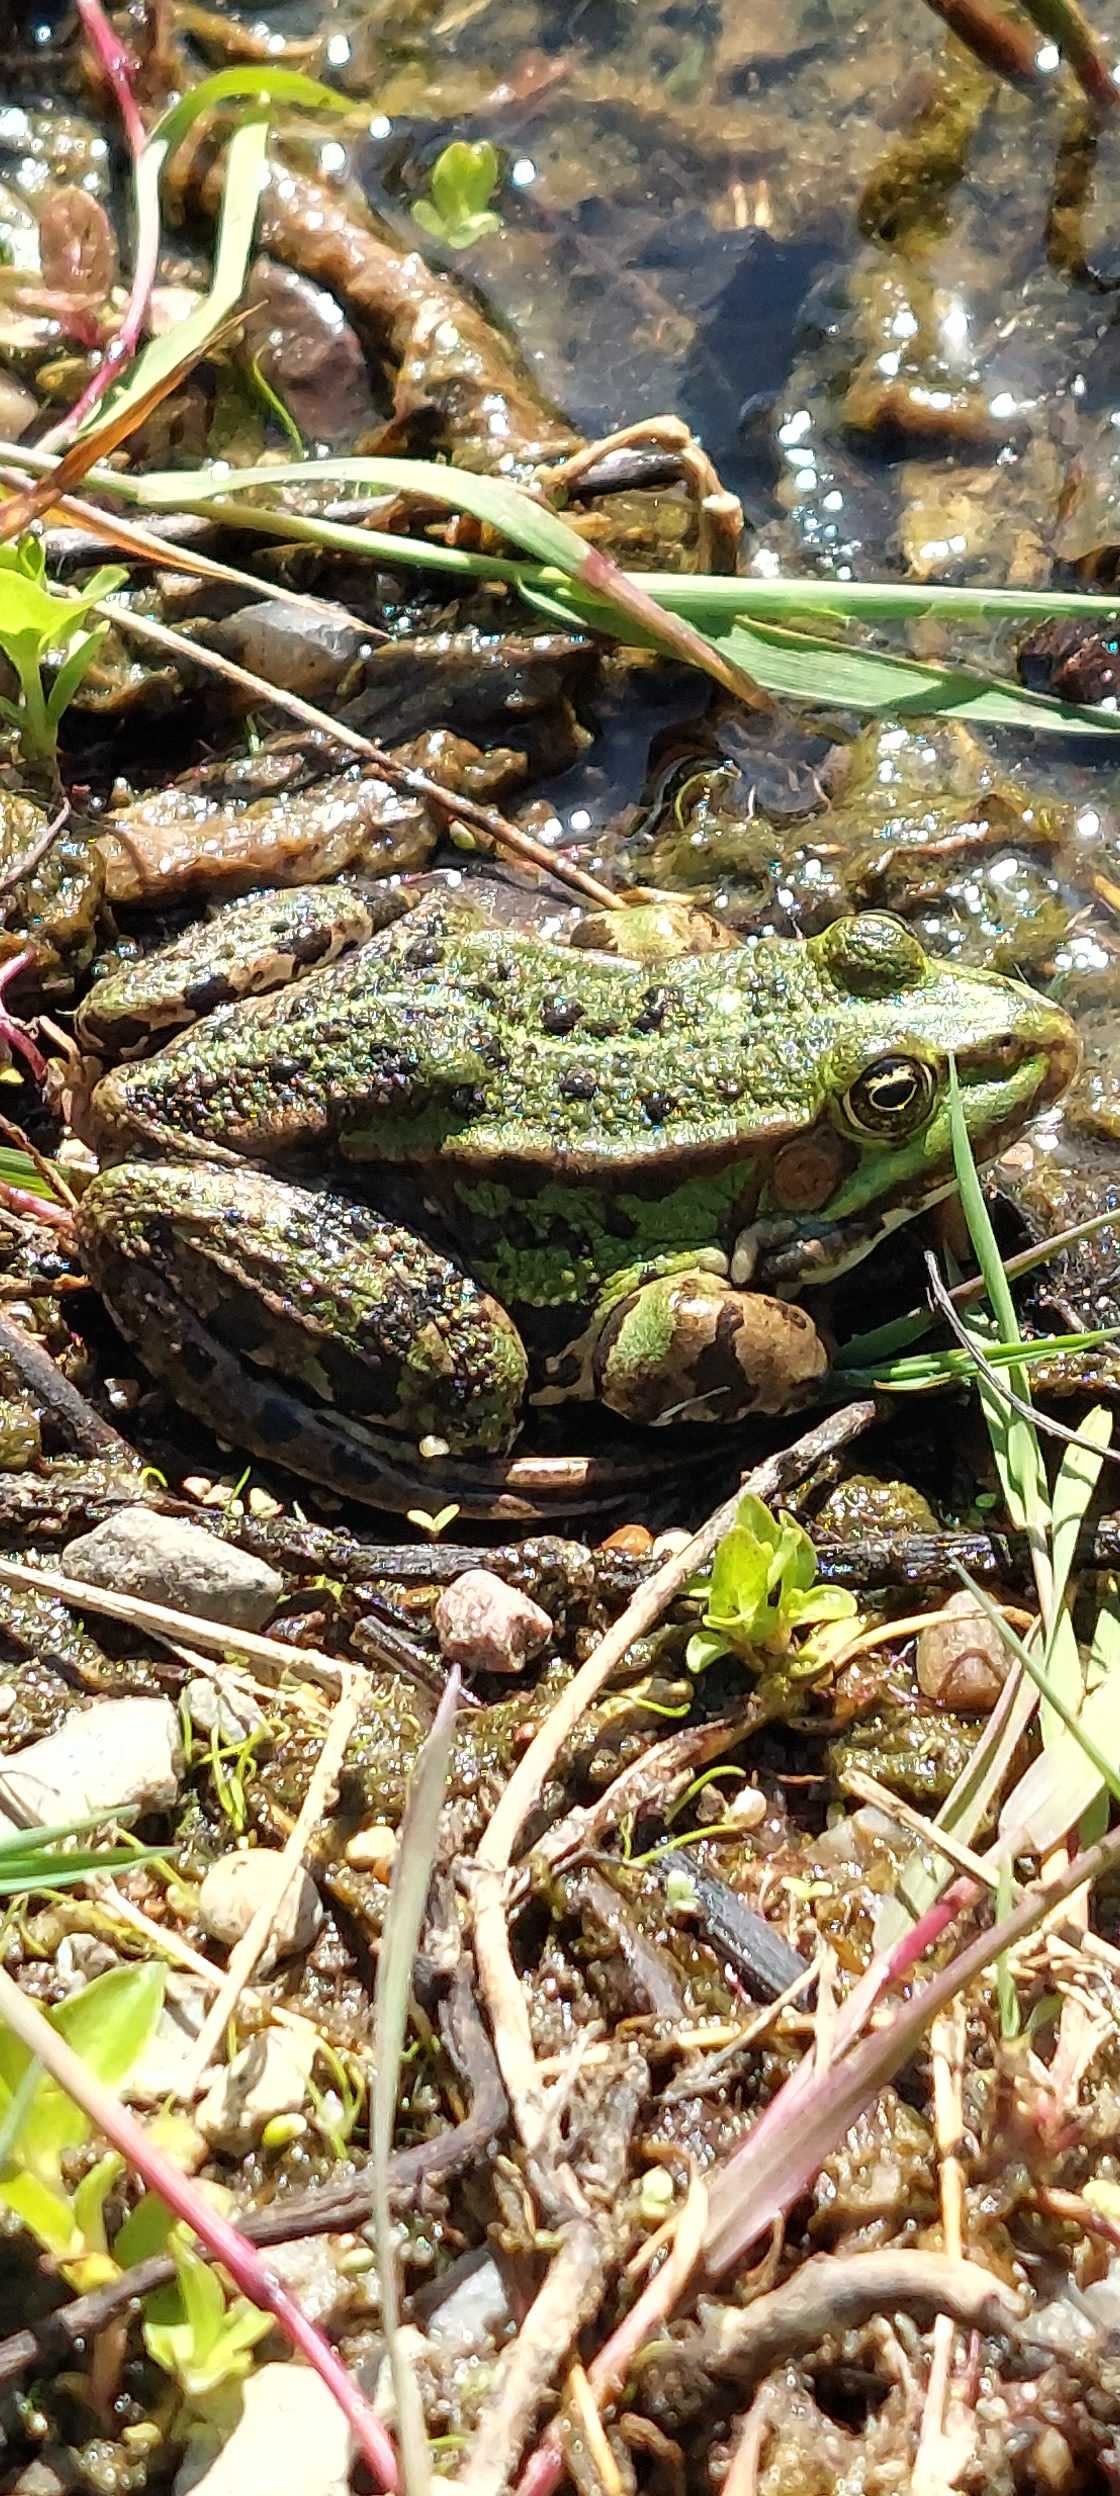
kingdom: Animalia
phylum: Chordata
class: Amphibia
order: Anura
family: Ranidae
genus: Pelophylax
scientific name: Pelophylax lessonae
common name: Grøn frø
